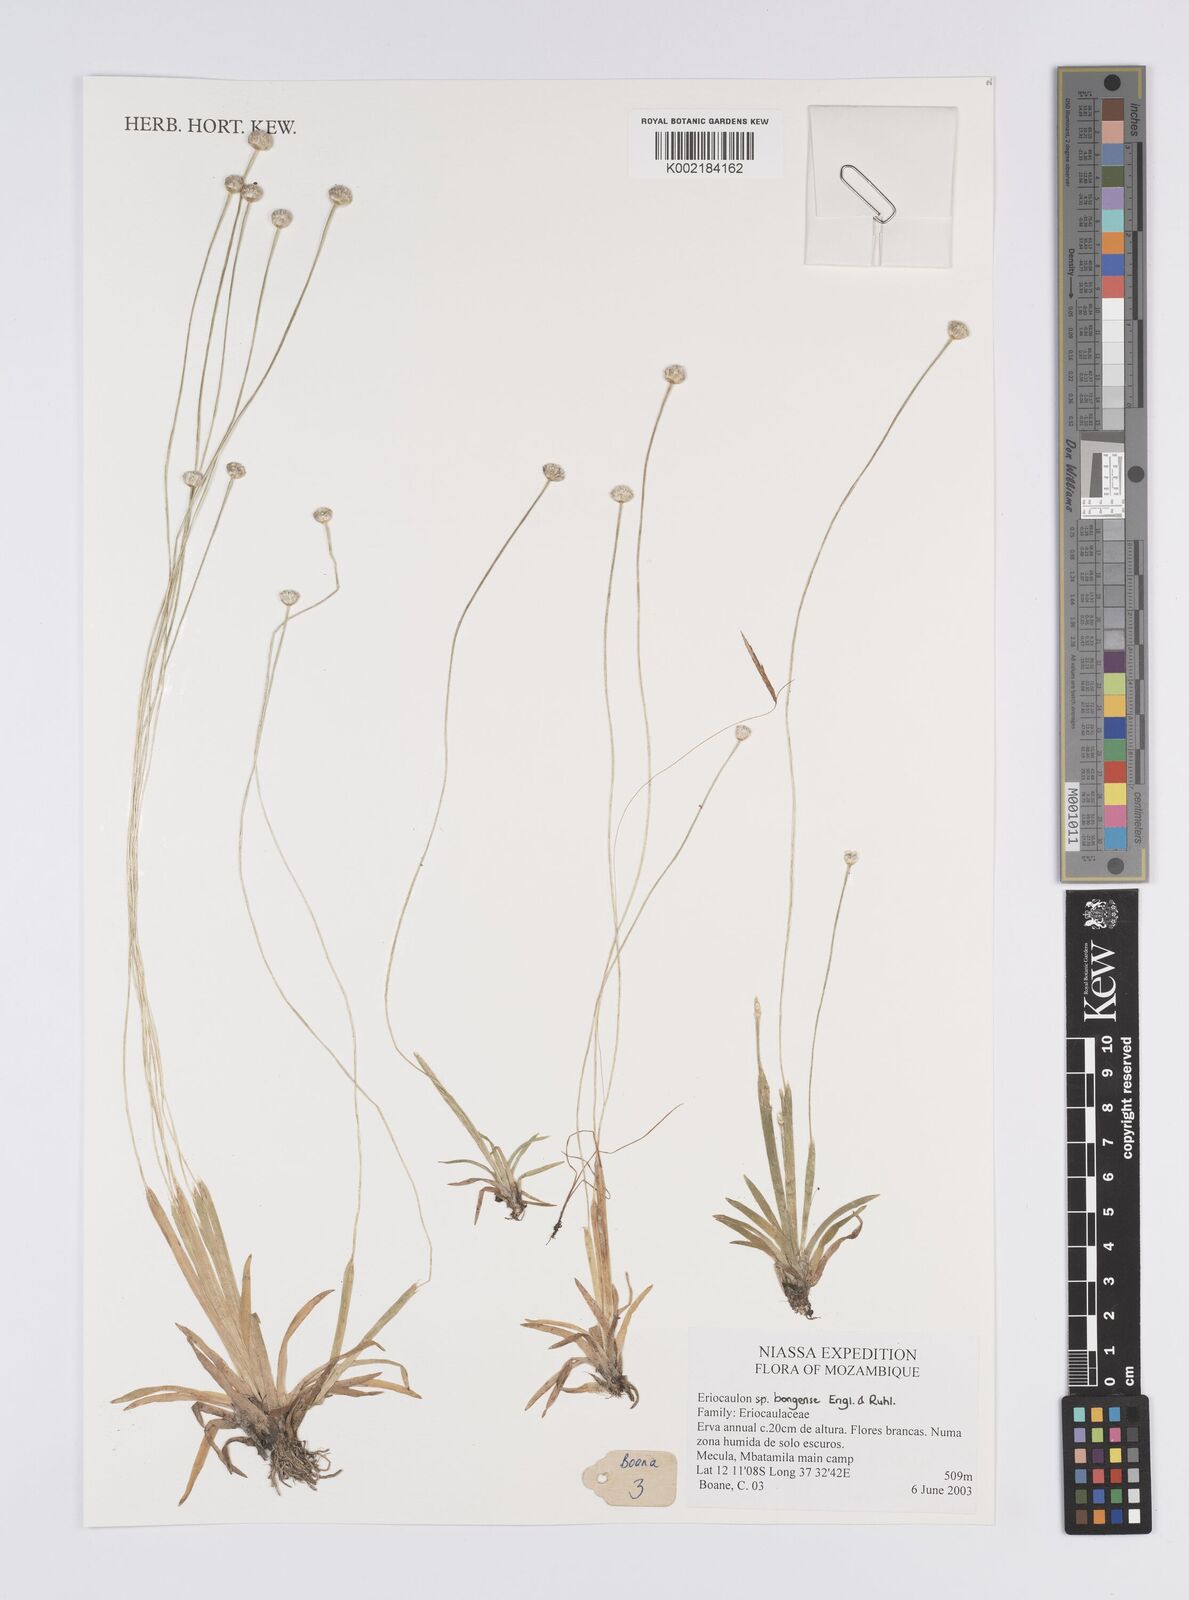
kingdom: Plantae
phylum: Tracheophyta
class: Liliopsida
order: Poales
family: Eriocaulaceae
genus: Eriocaulon
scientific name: Eriocaulon bongense
